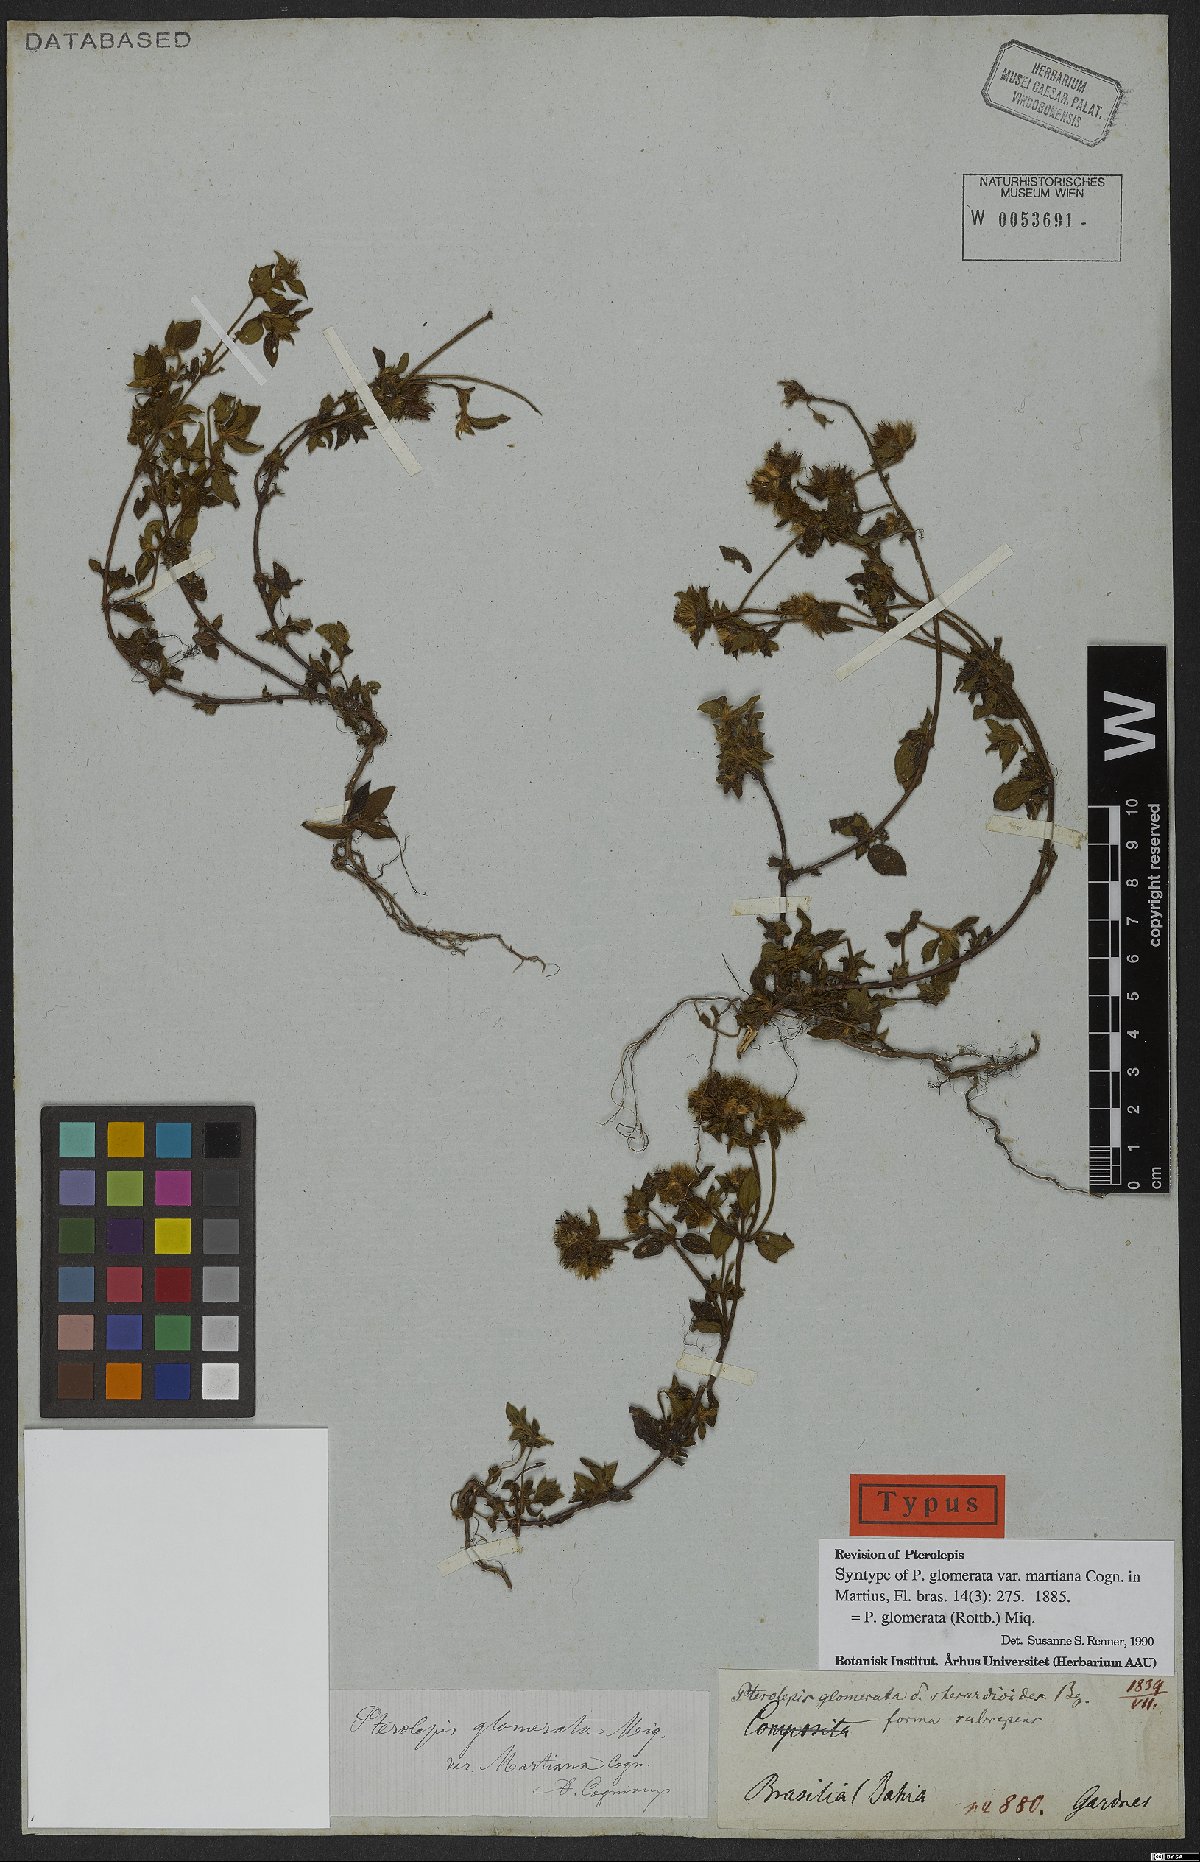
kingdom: Plantae
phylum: Tracheophyta
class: Magnoliopsida
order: Myrtales
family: Melastomataceae
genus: Pterolepis
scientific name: Pterolepis glomerata
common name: False meadowbeauty
